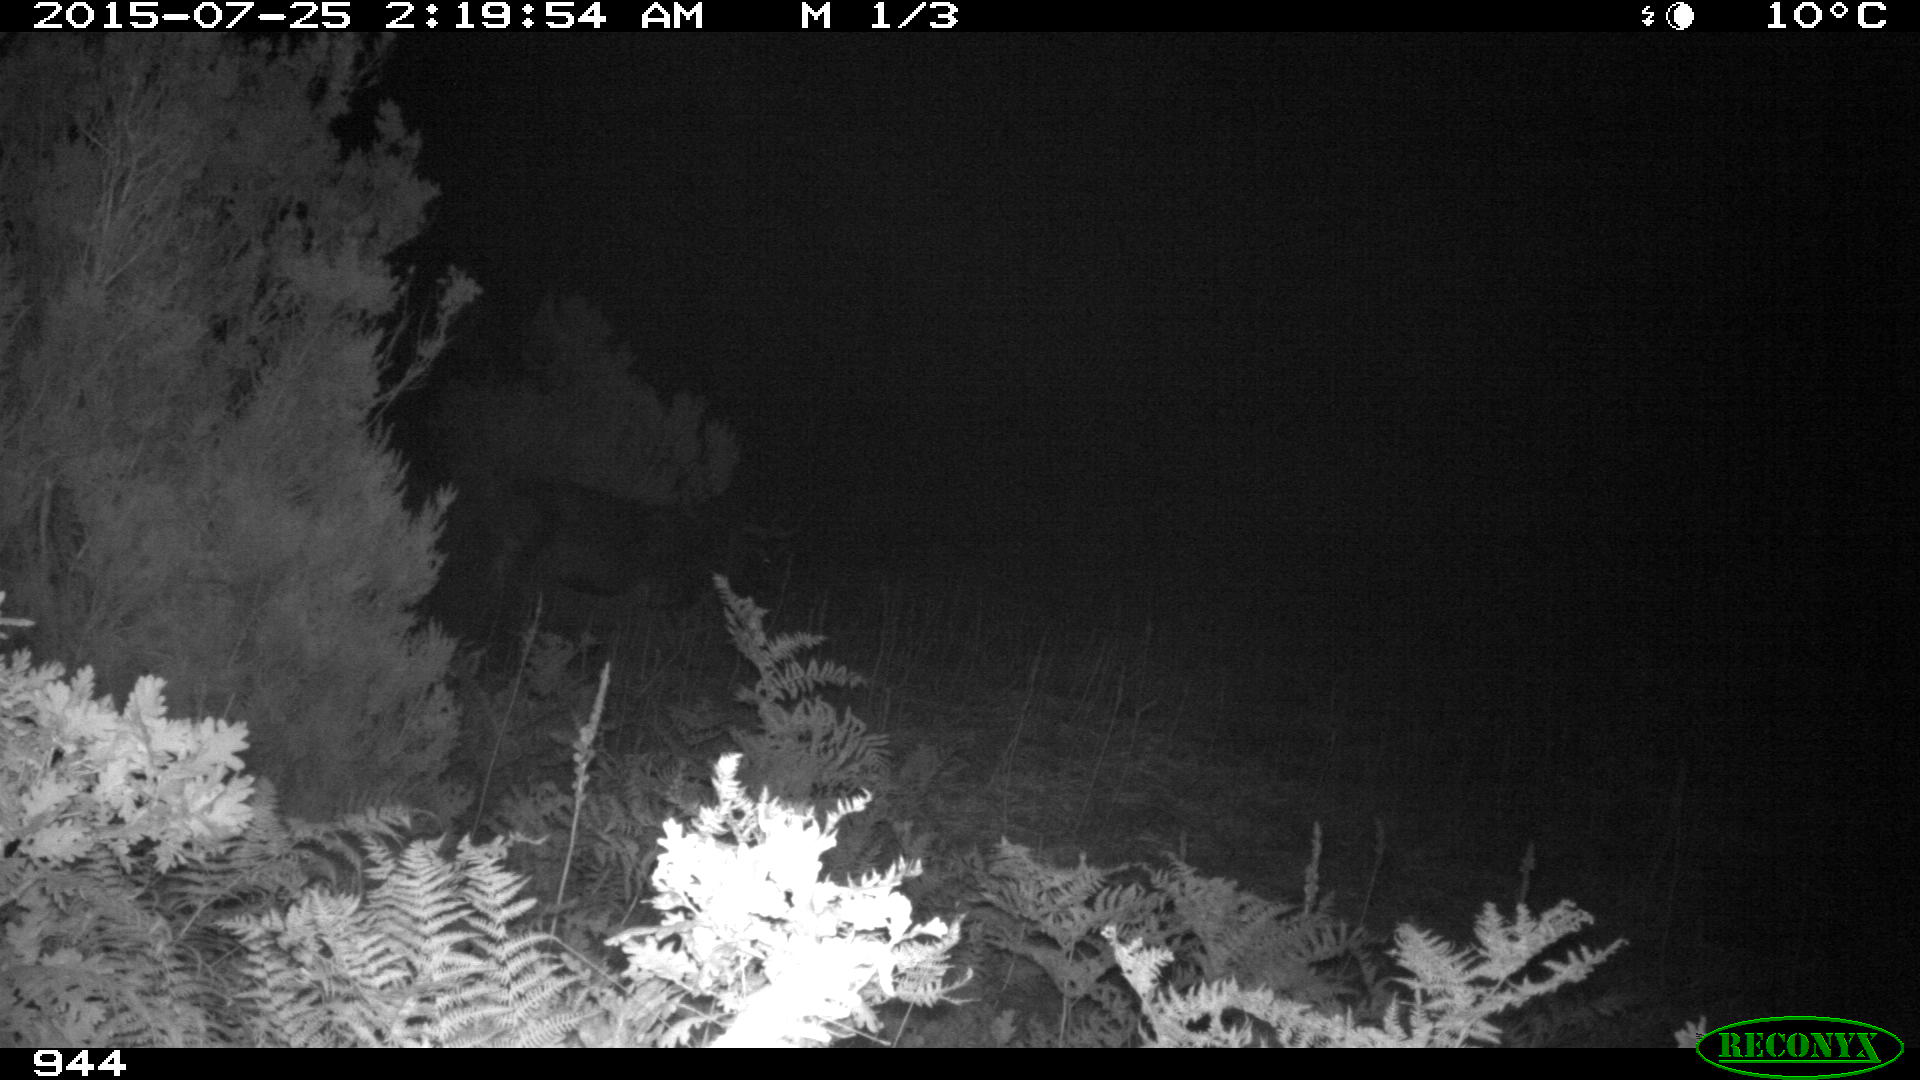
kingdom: Animalia
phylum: Chordata
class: Mammalia
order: Artiodactyla
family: Bovidae
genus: Bos
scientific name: Bos taurus
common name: Domesticated cattle
